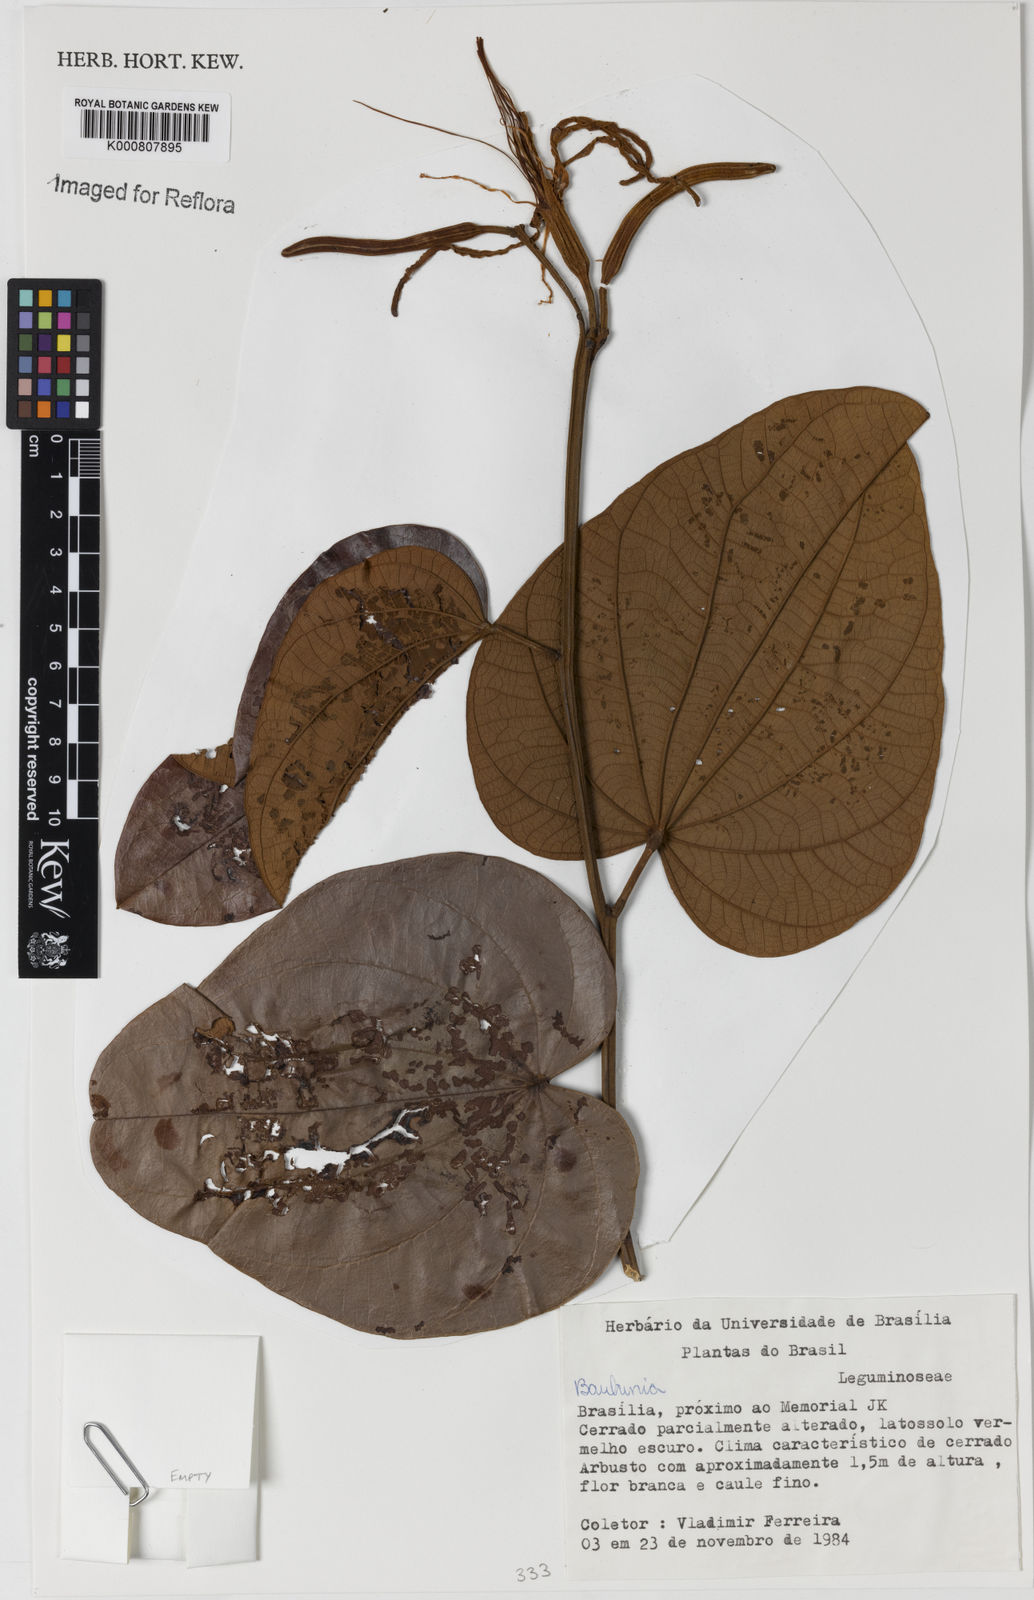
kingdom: Plantae
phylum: Tracheophyta
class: Magnoliopsida
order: Fabales
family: Fabaceae
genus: Bauhinia
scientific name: Bauhinia
